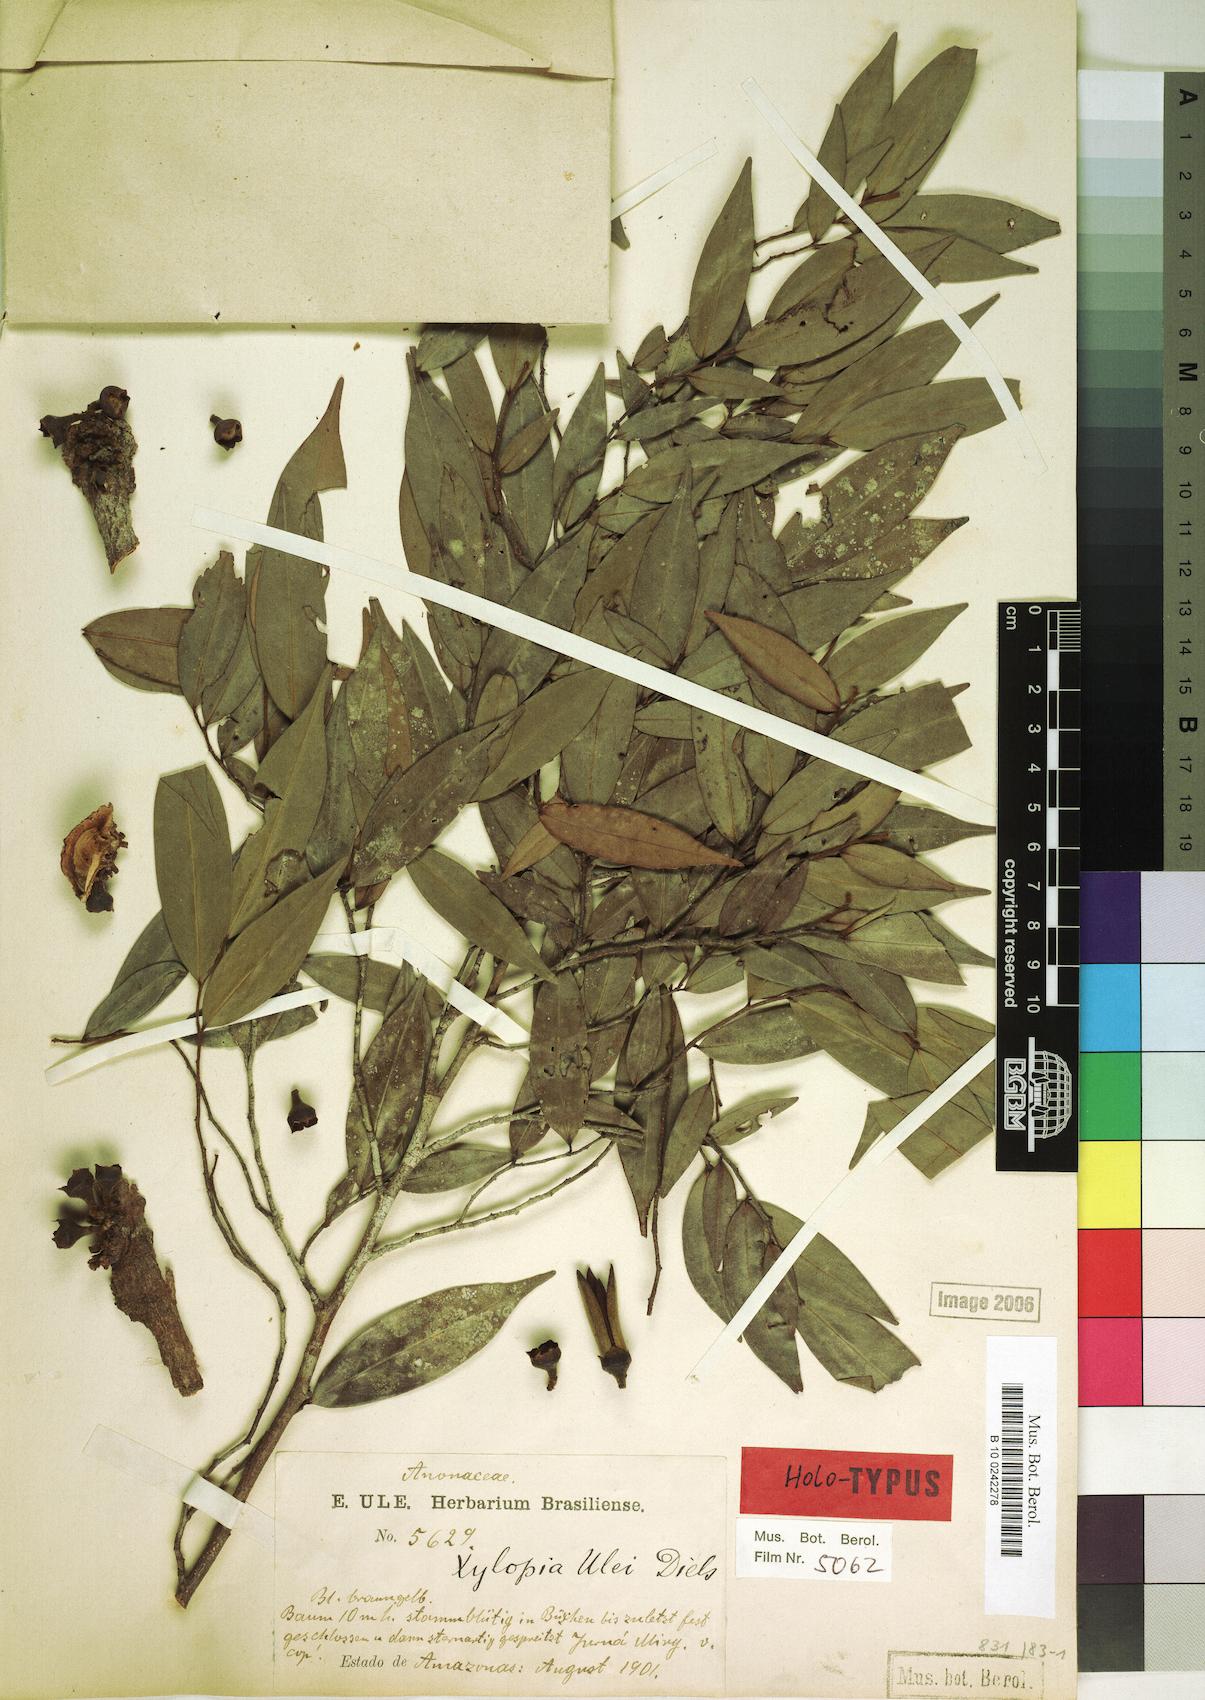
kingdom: Plantae
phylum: Tracheophyta
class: Magnoliopsida
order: Magnoliales
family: Annonaceae
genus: Xylopia
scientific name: Xylopia benthamii
